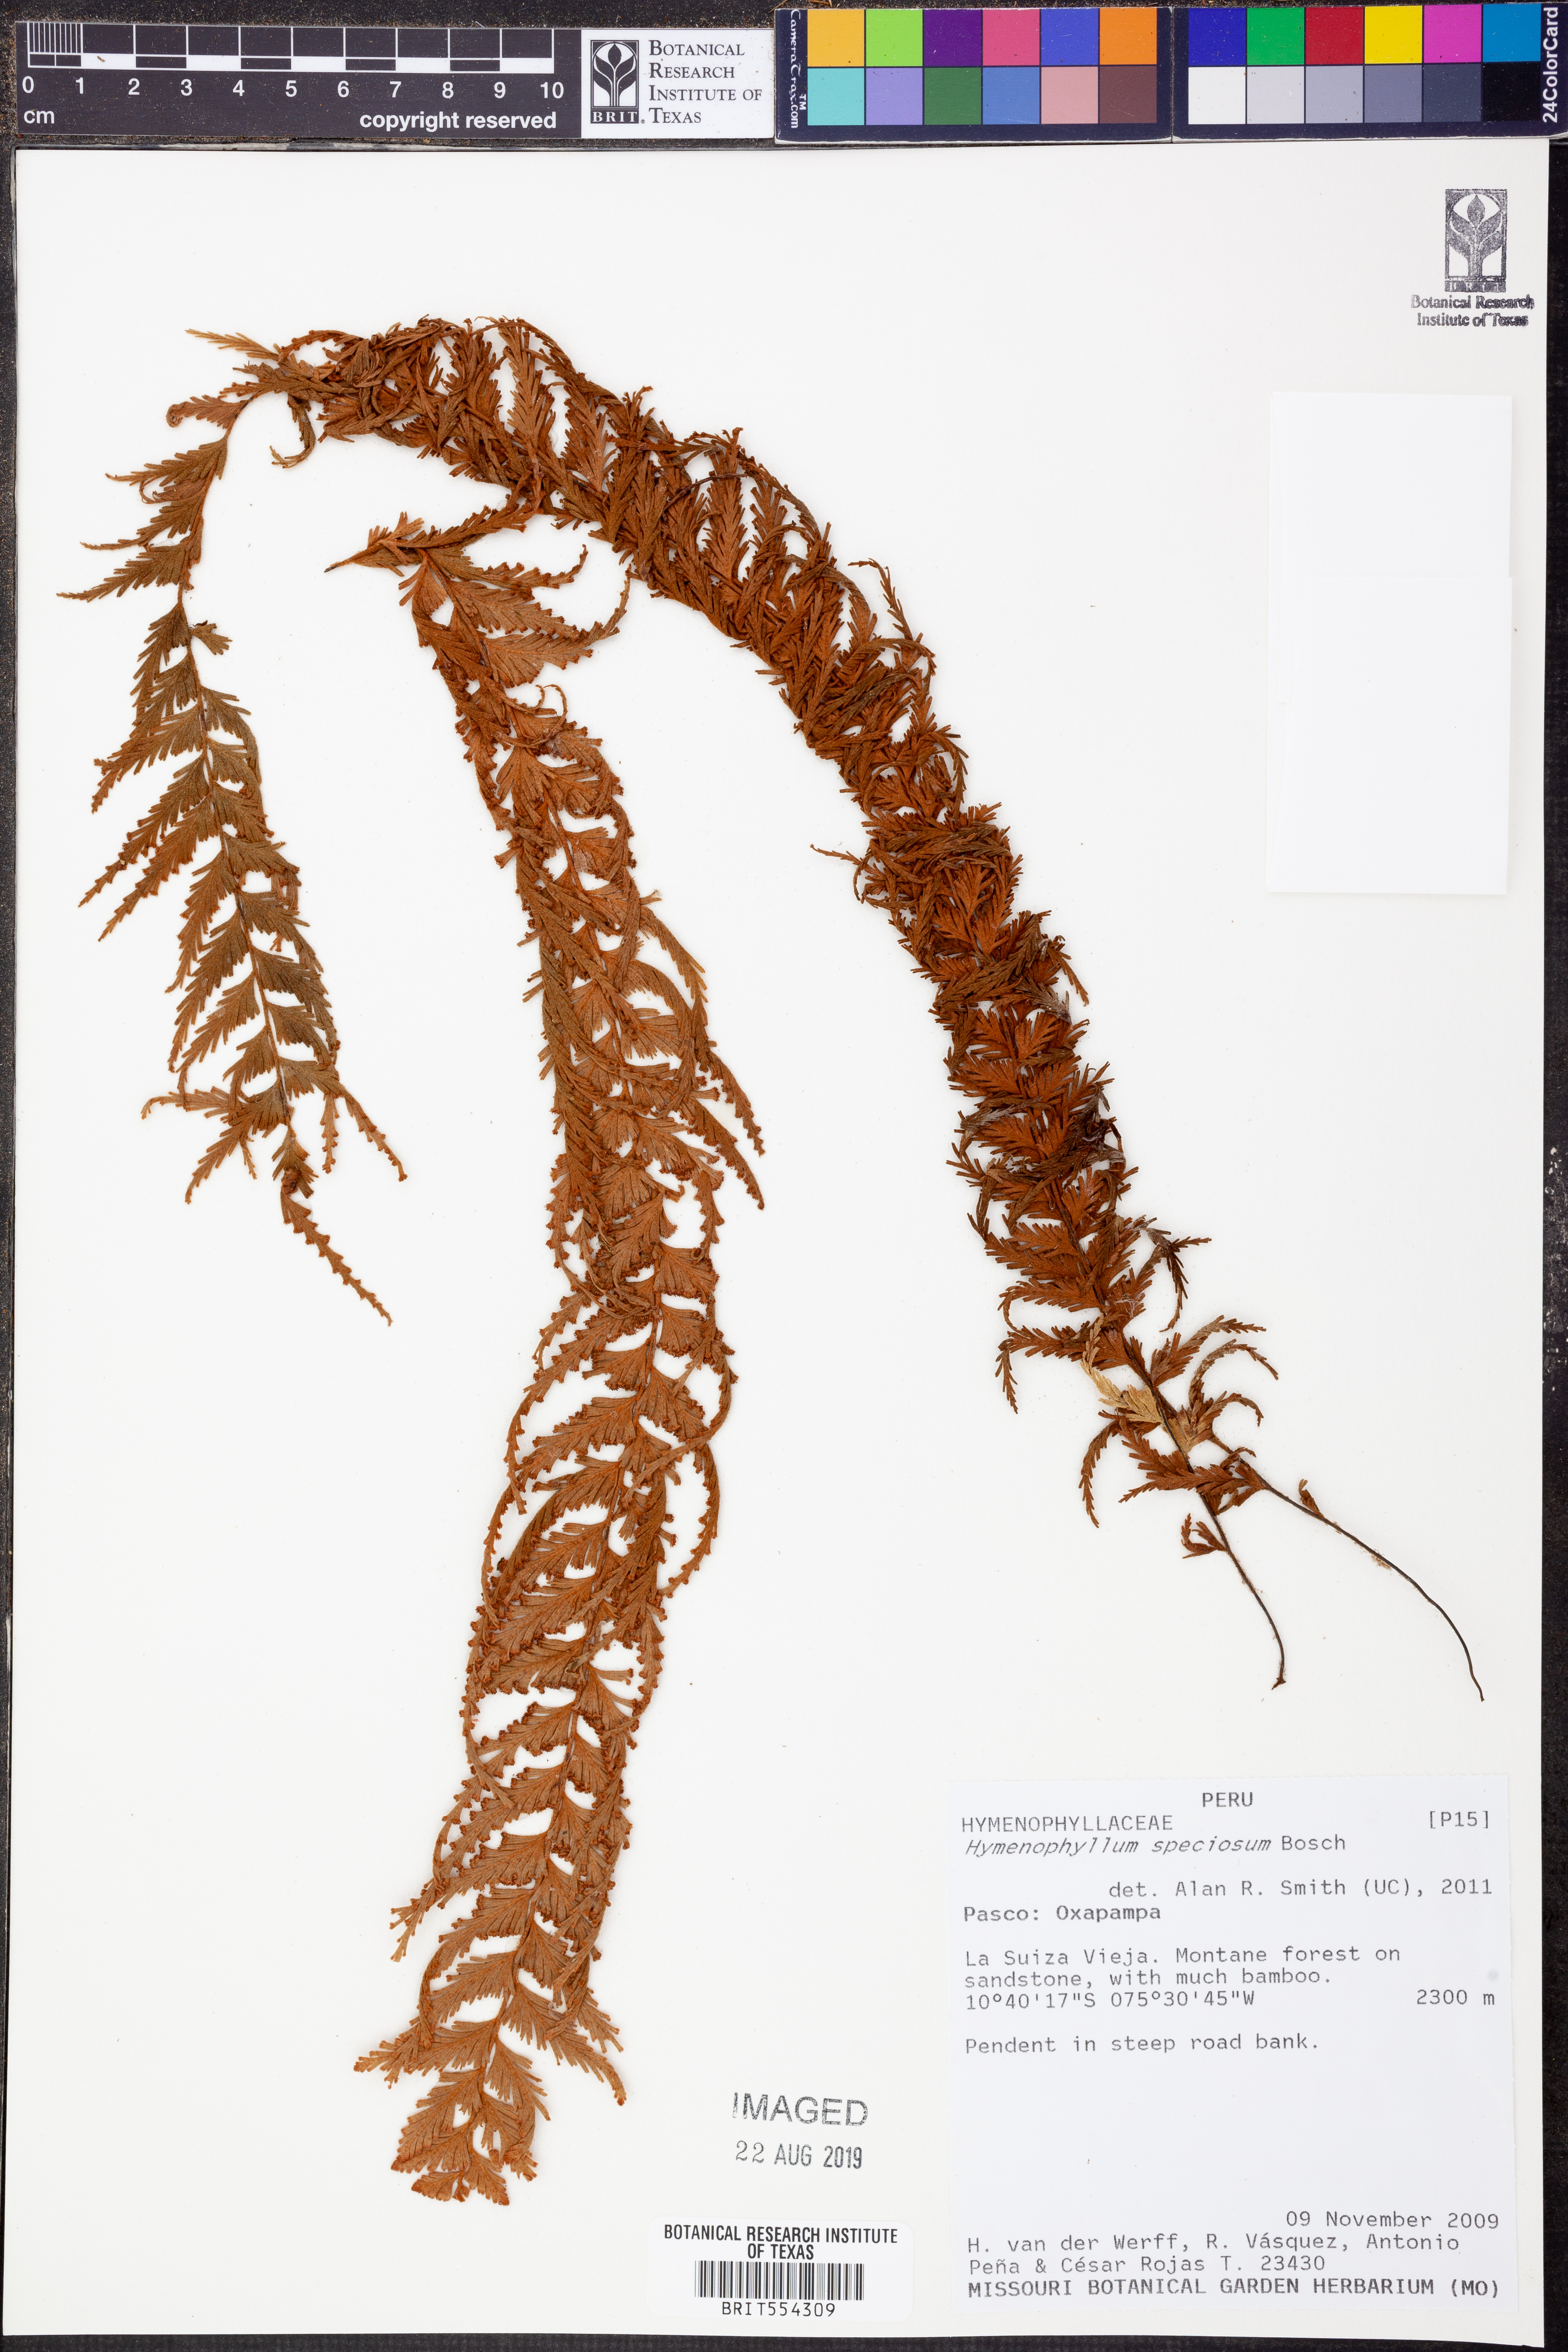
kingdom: Plantae
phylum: Tracheophyta
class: Polypodiopsida
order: Hymenophyllales
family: Hymenophyllaceae
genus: Hymenophyllum
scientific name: Hymenophyllum sericeum
